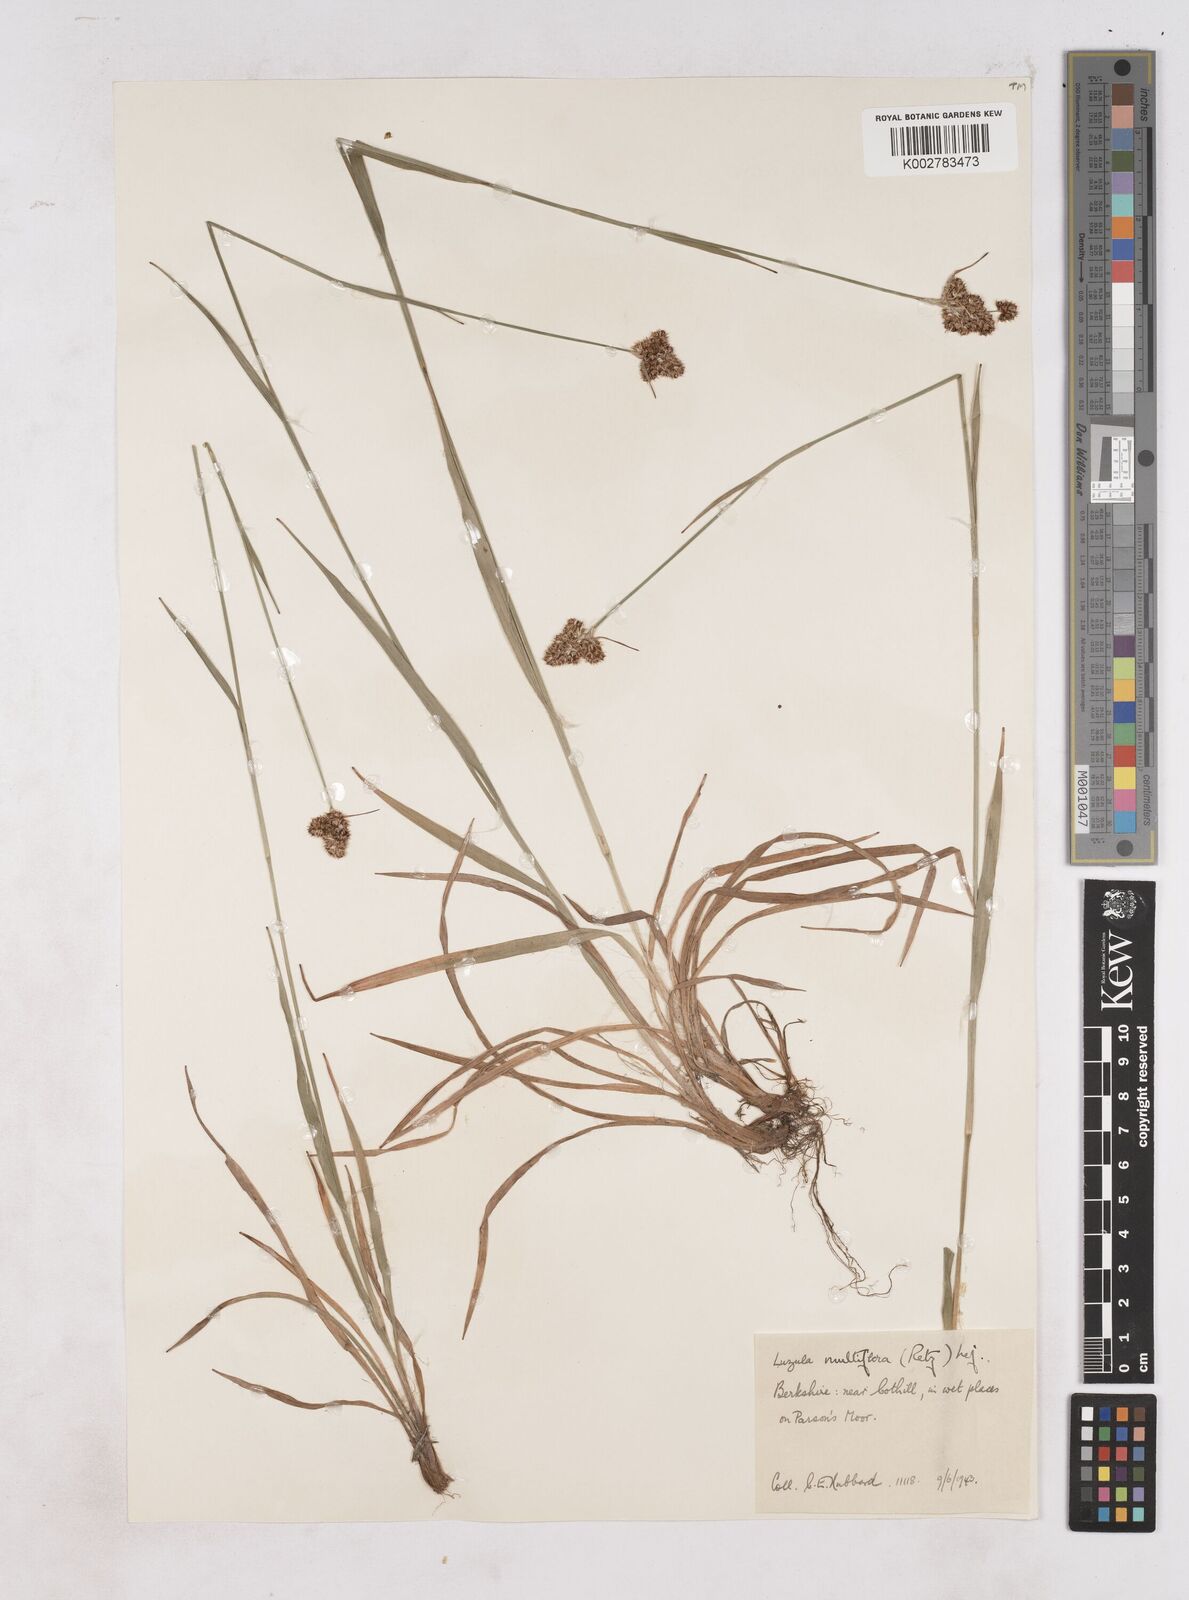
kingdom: Plantae
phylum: Tracheophyta
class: Liliopsida
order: Poales
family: Juncaceae
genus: Luzula
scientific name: Luzula campestris
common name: Field wood-rush
